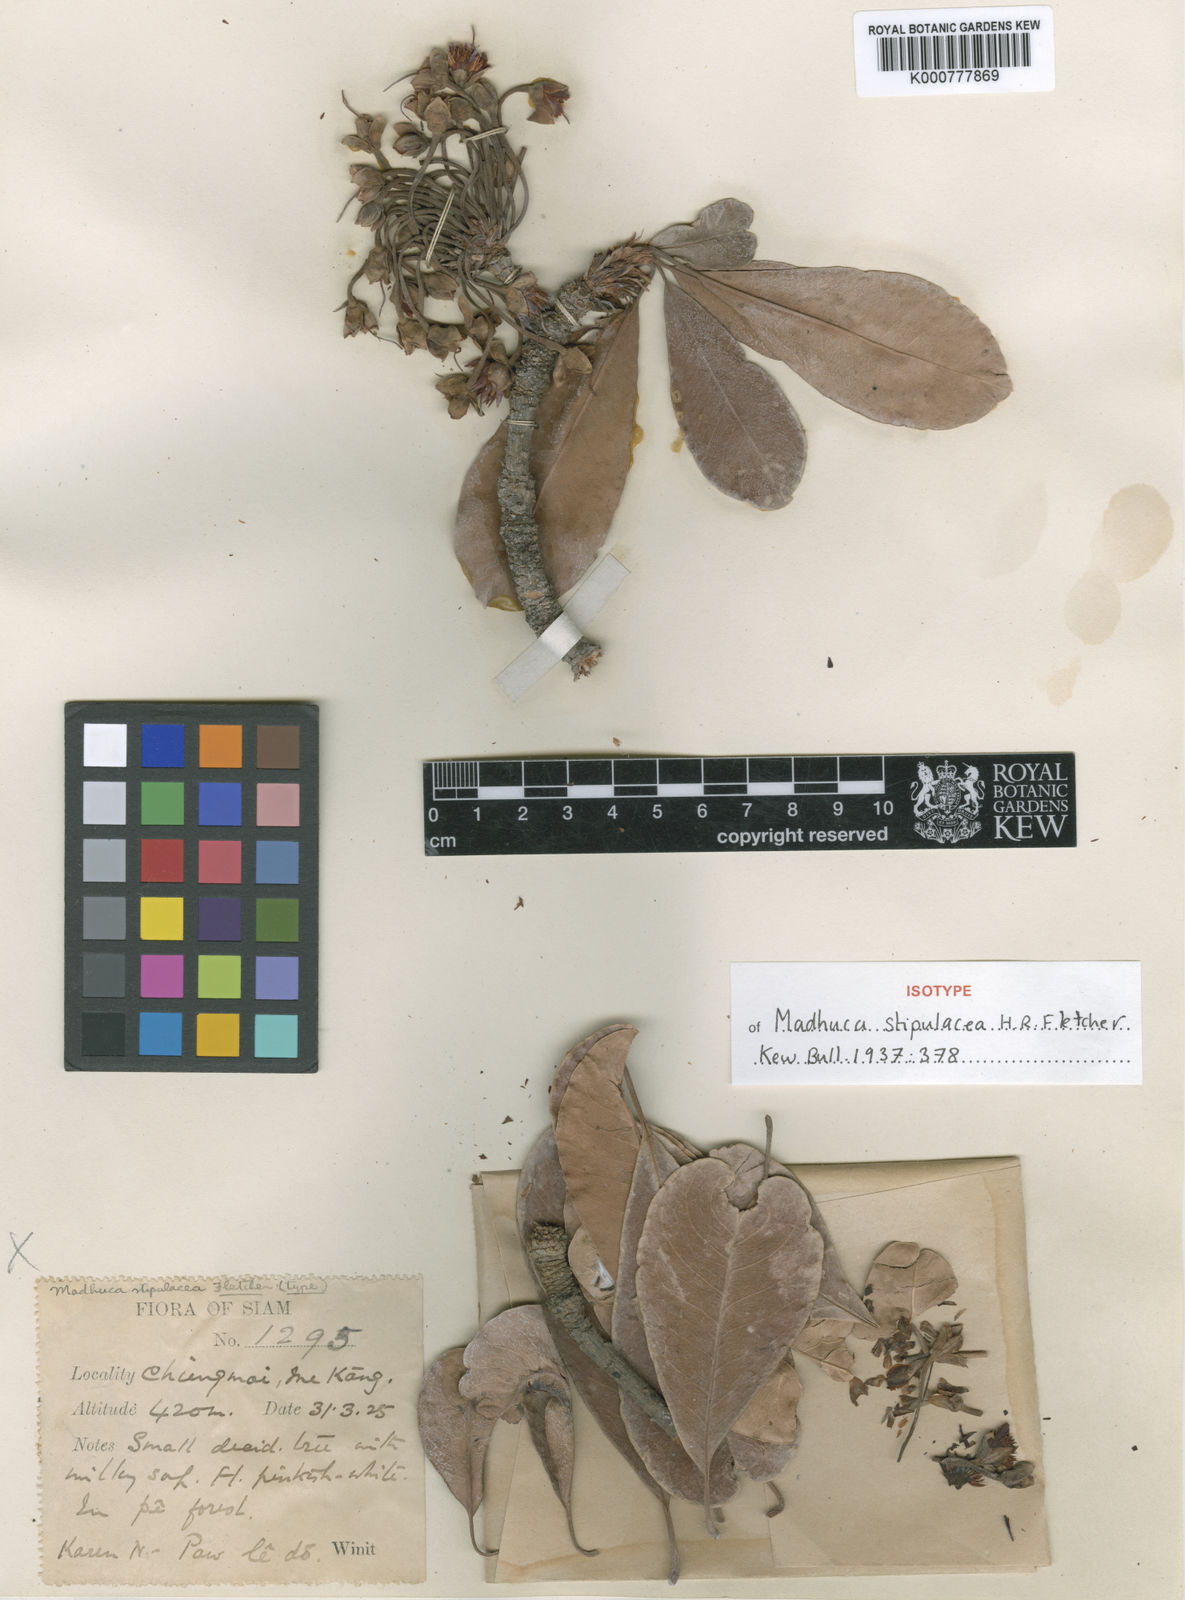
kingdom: Plantae
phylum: Tracheophyta
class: Magnoliopsida
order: Ericales
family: Sapotaceae
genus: Madhuca
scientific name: Madhuca stipulacea
